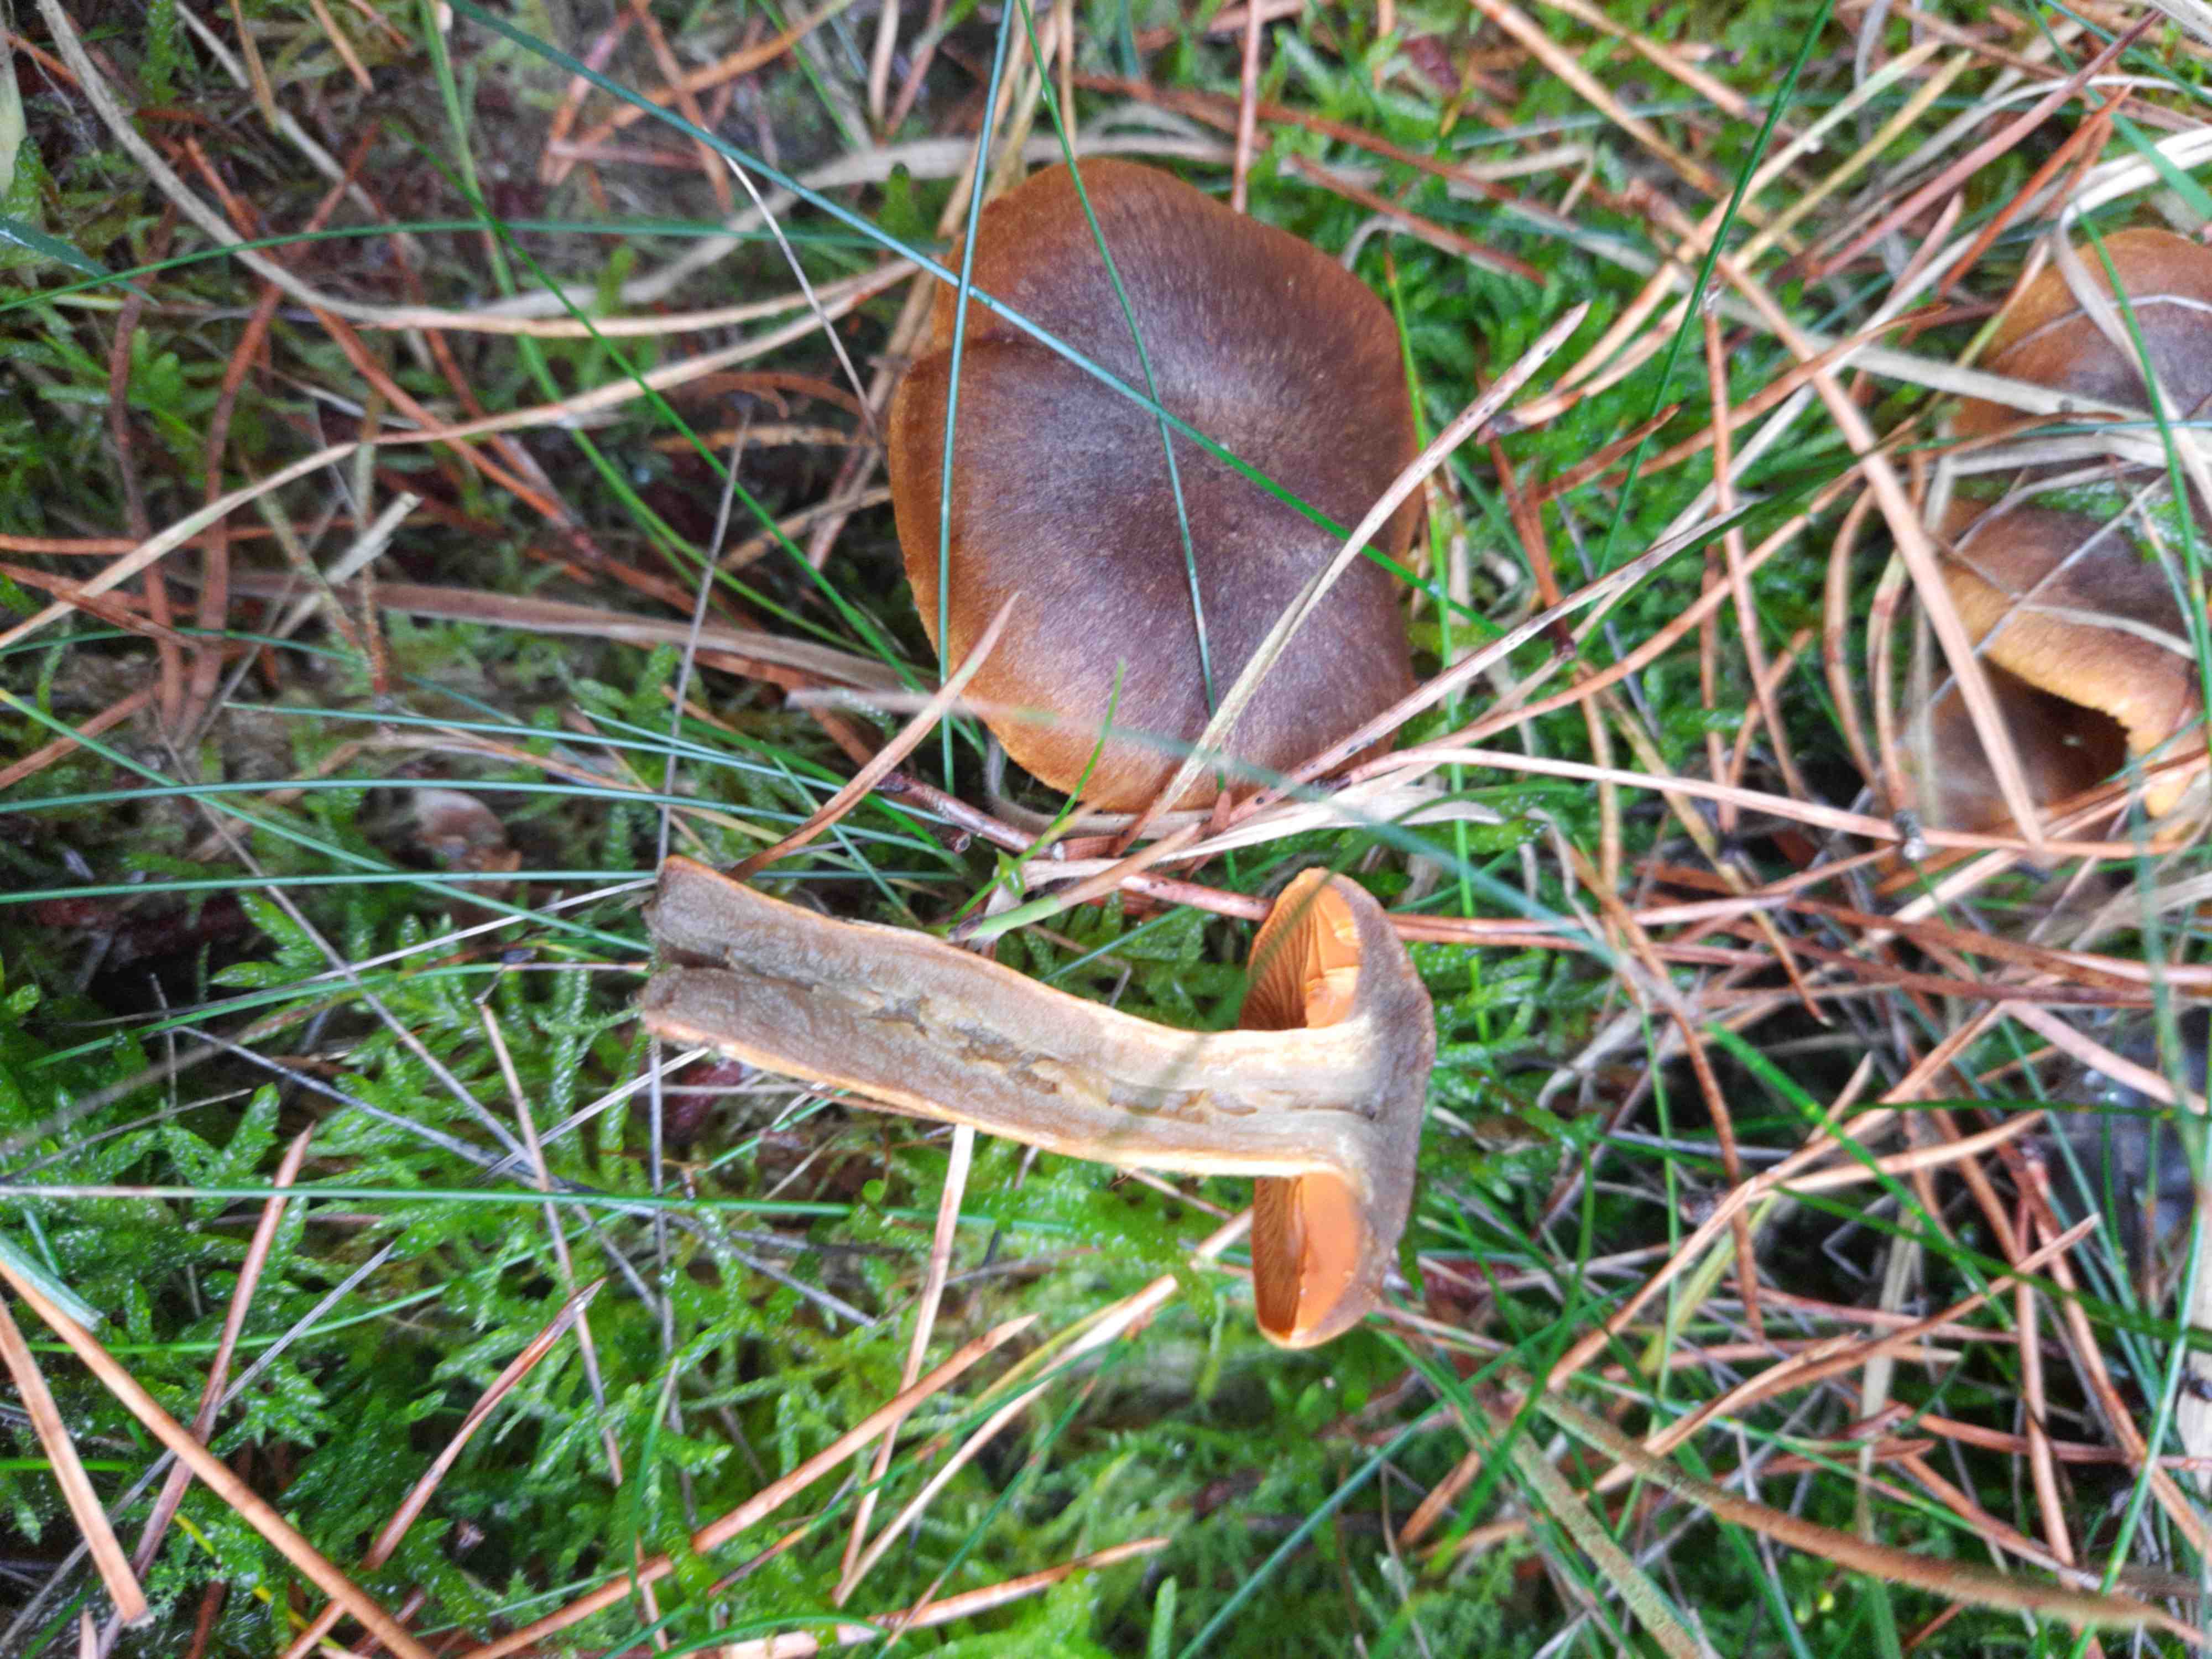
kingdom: Fungi
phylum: Basidiomycota
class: Agaricomycetes
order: Agaricales
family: Cortinariaceae
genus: Cortinarius
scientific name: Cortinarius malicorius
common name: grønkødet slørhat
